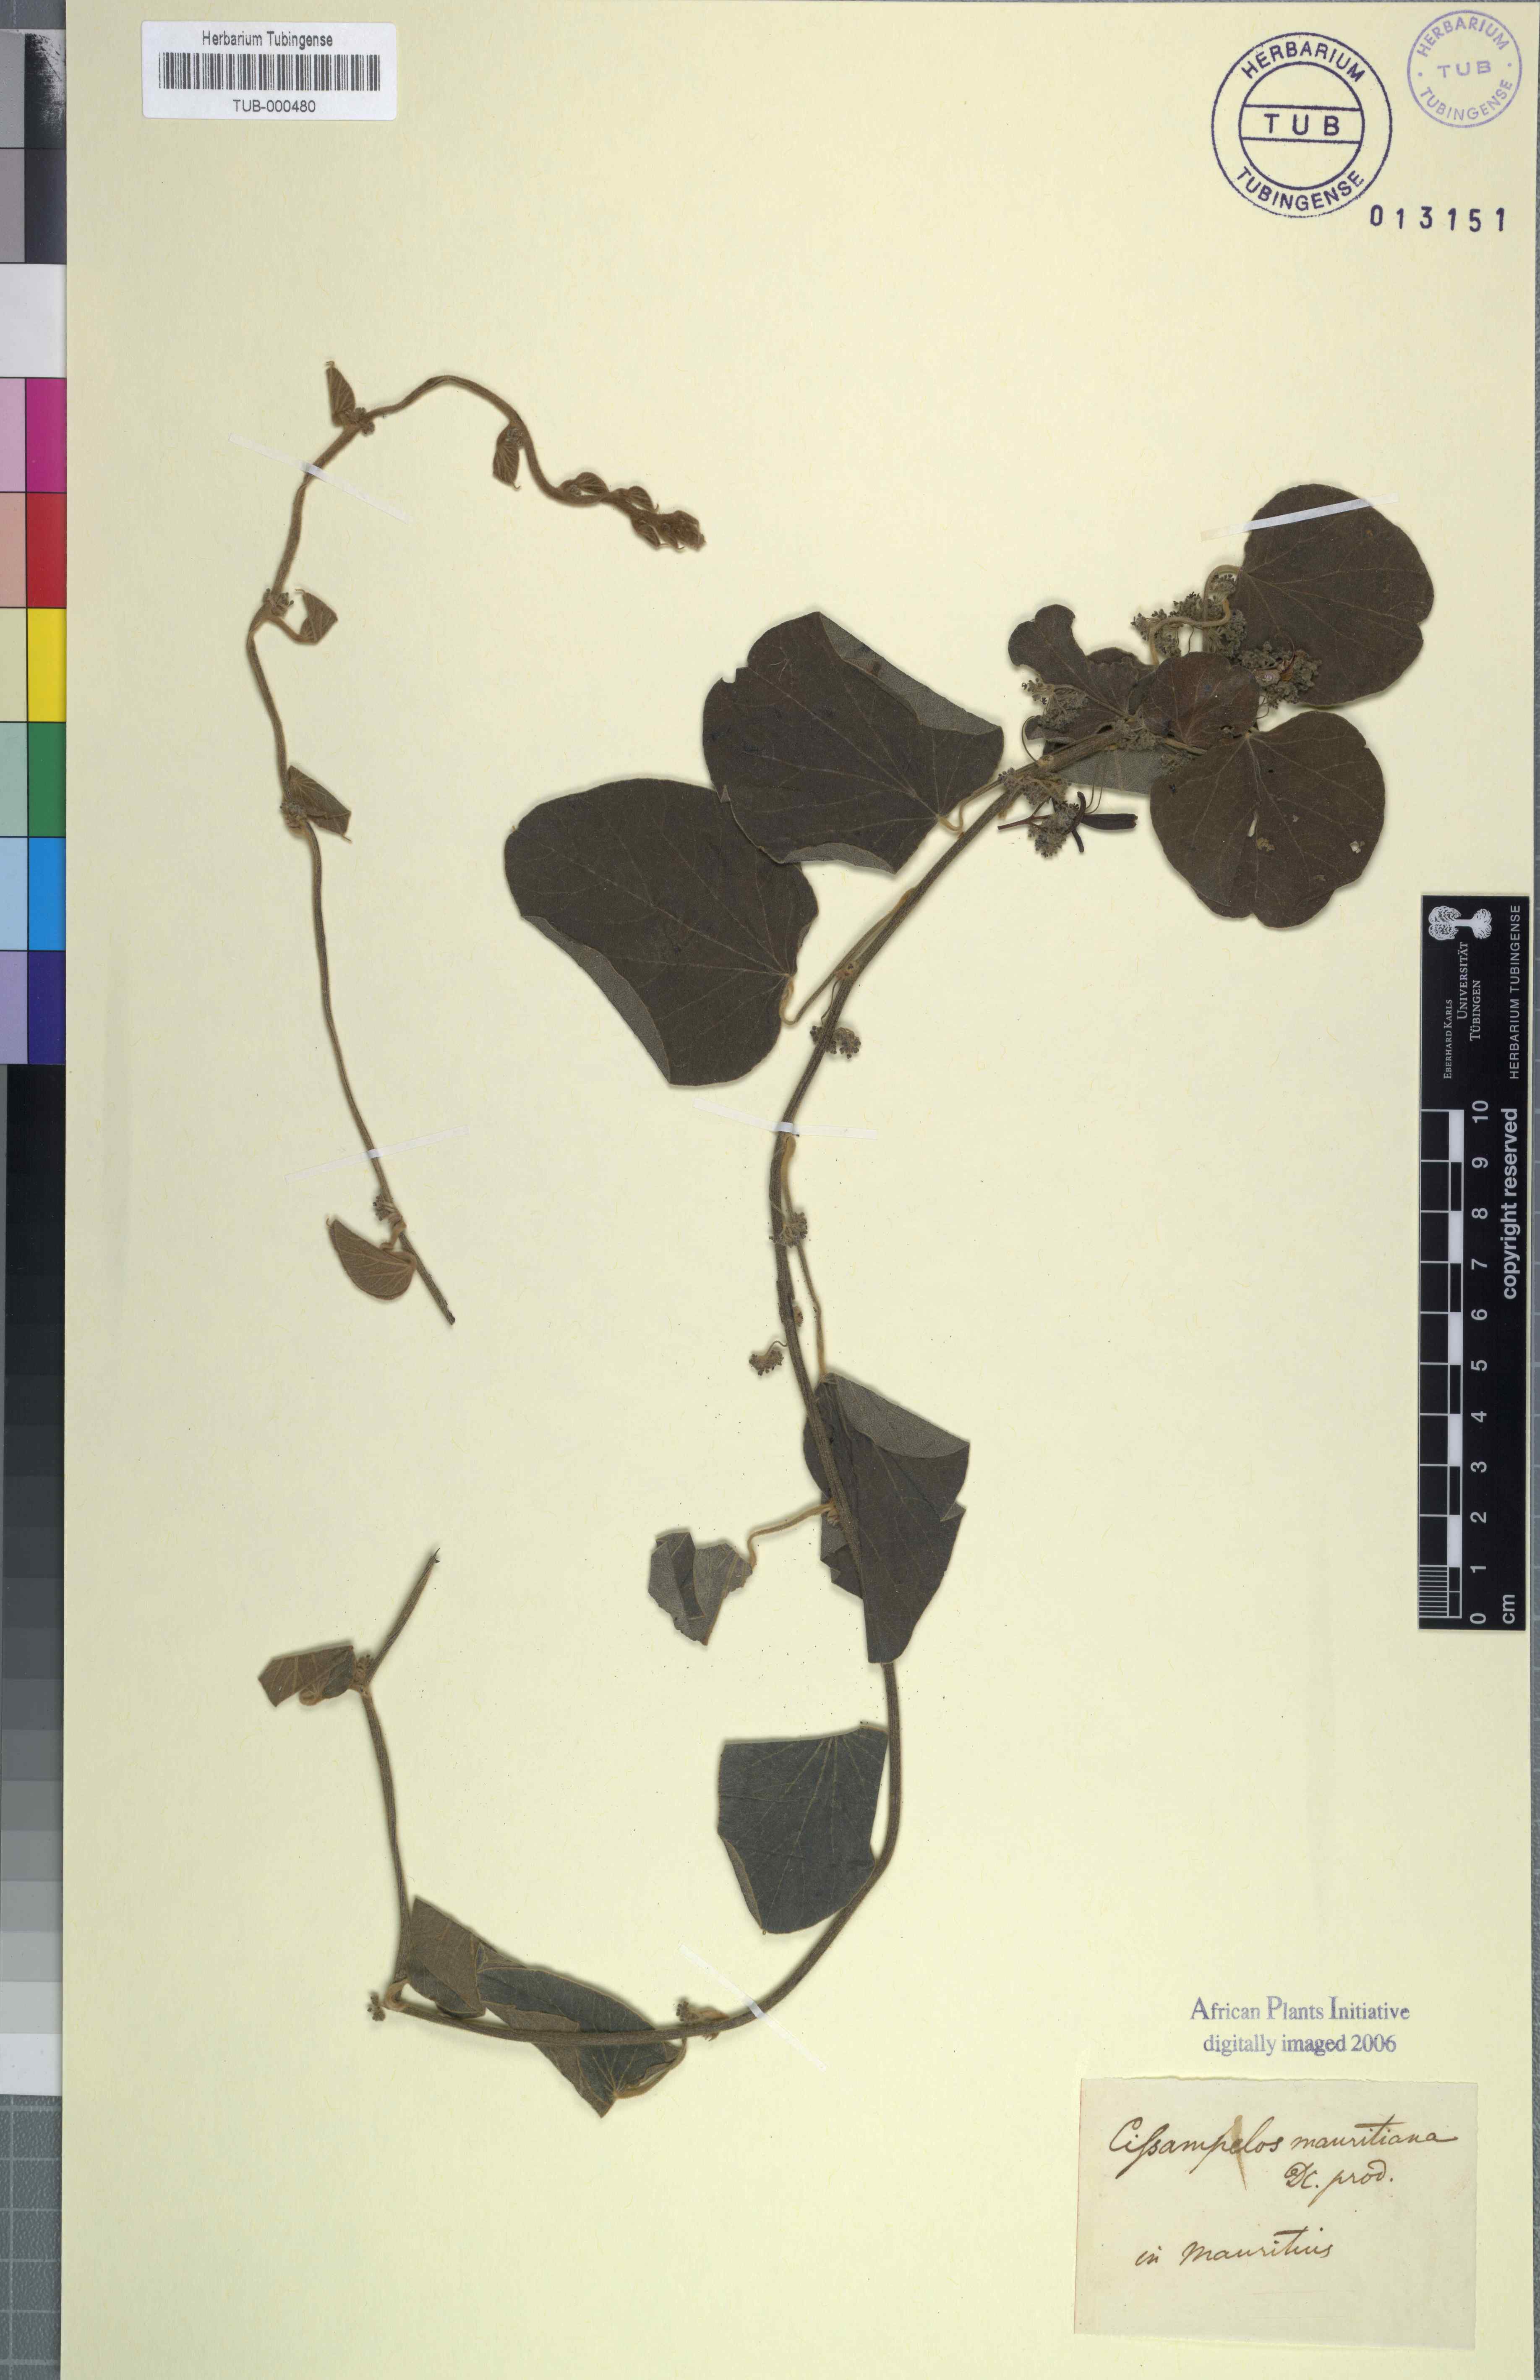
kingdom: Plantae
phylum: Tracheophyta
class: Magnoliopsida
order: Ranunculales
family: Menispermaceae
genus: Cissampelos
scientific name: Cissampelos pareira
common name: Velvetleaf
